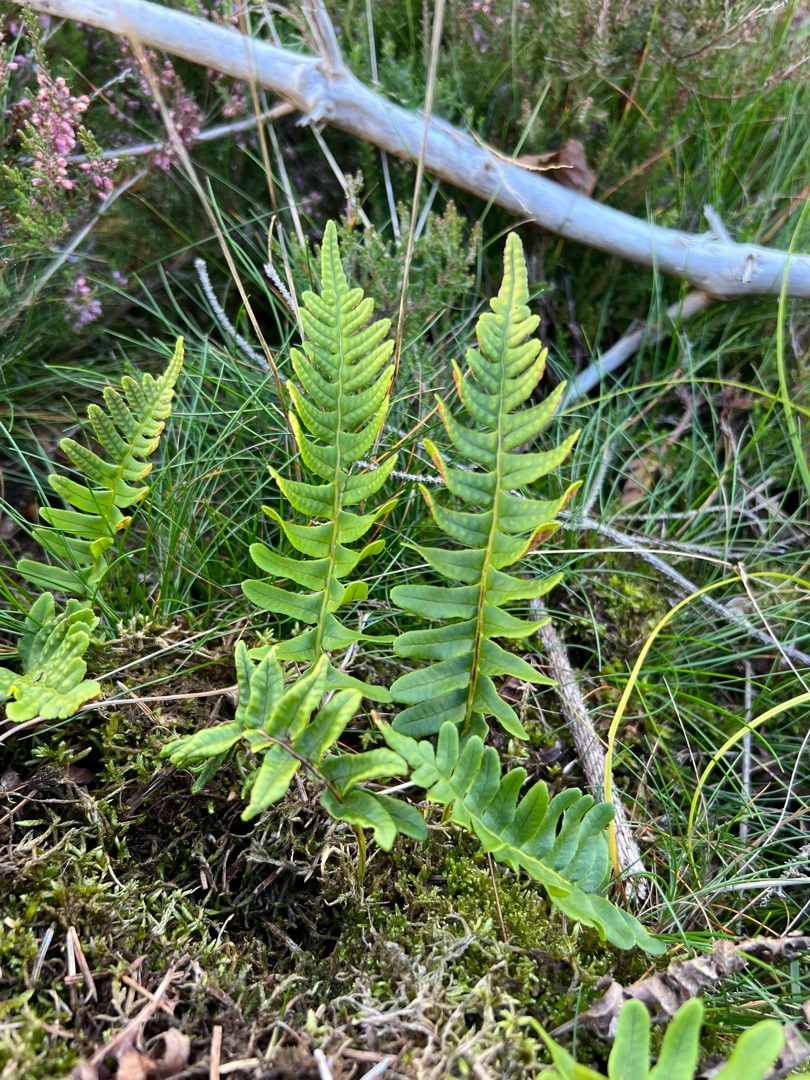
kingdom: Plantae
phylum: Tracheophyta
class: Polypodiopsida
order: Polypodiales
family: Polypodiaceae
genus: Polypodium
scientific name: Polypodium vulgare
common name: Almindelig engelsød
